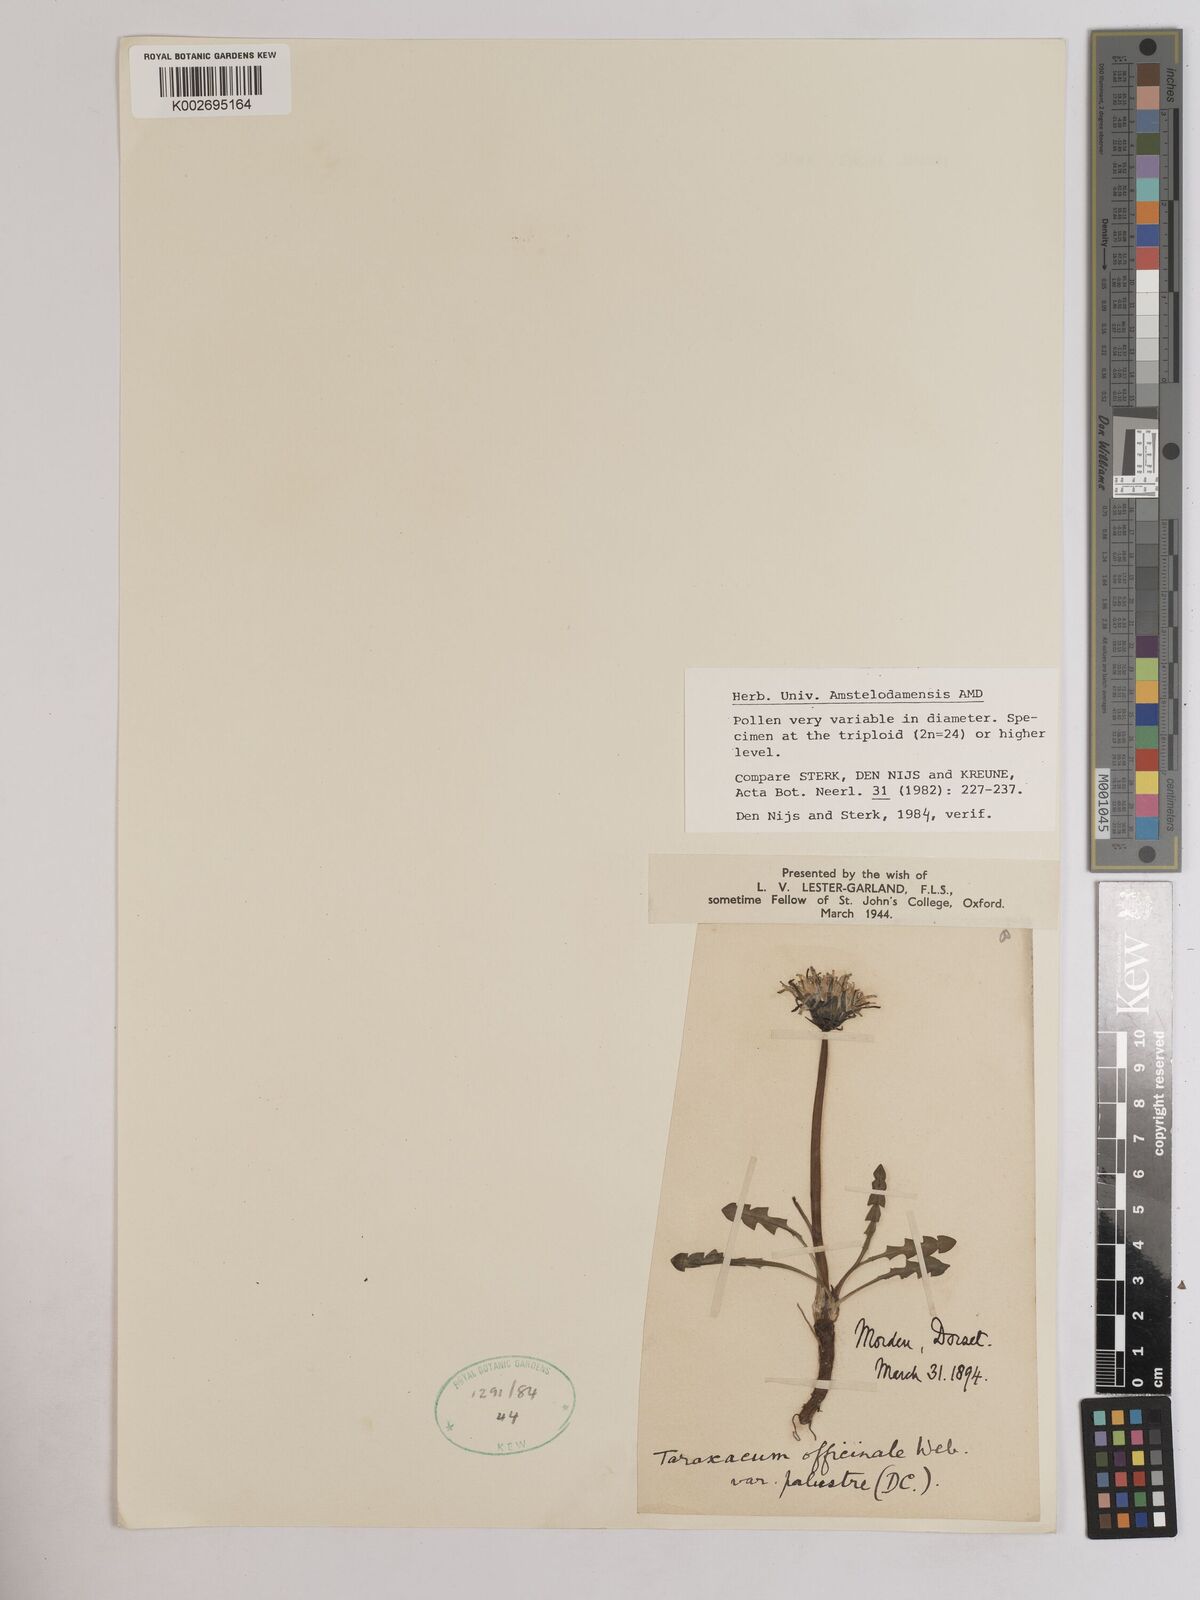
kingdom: Plantae
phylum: Tracheophyta
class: Magnoliopsida
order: Asterales
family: Asteraceae
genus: Taraxacum
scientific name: Taraxacum officinale
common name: Common dandelion
